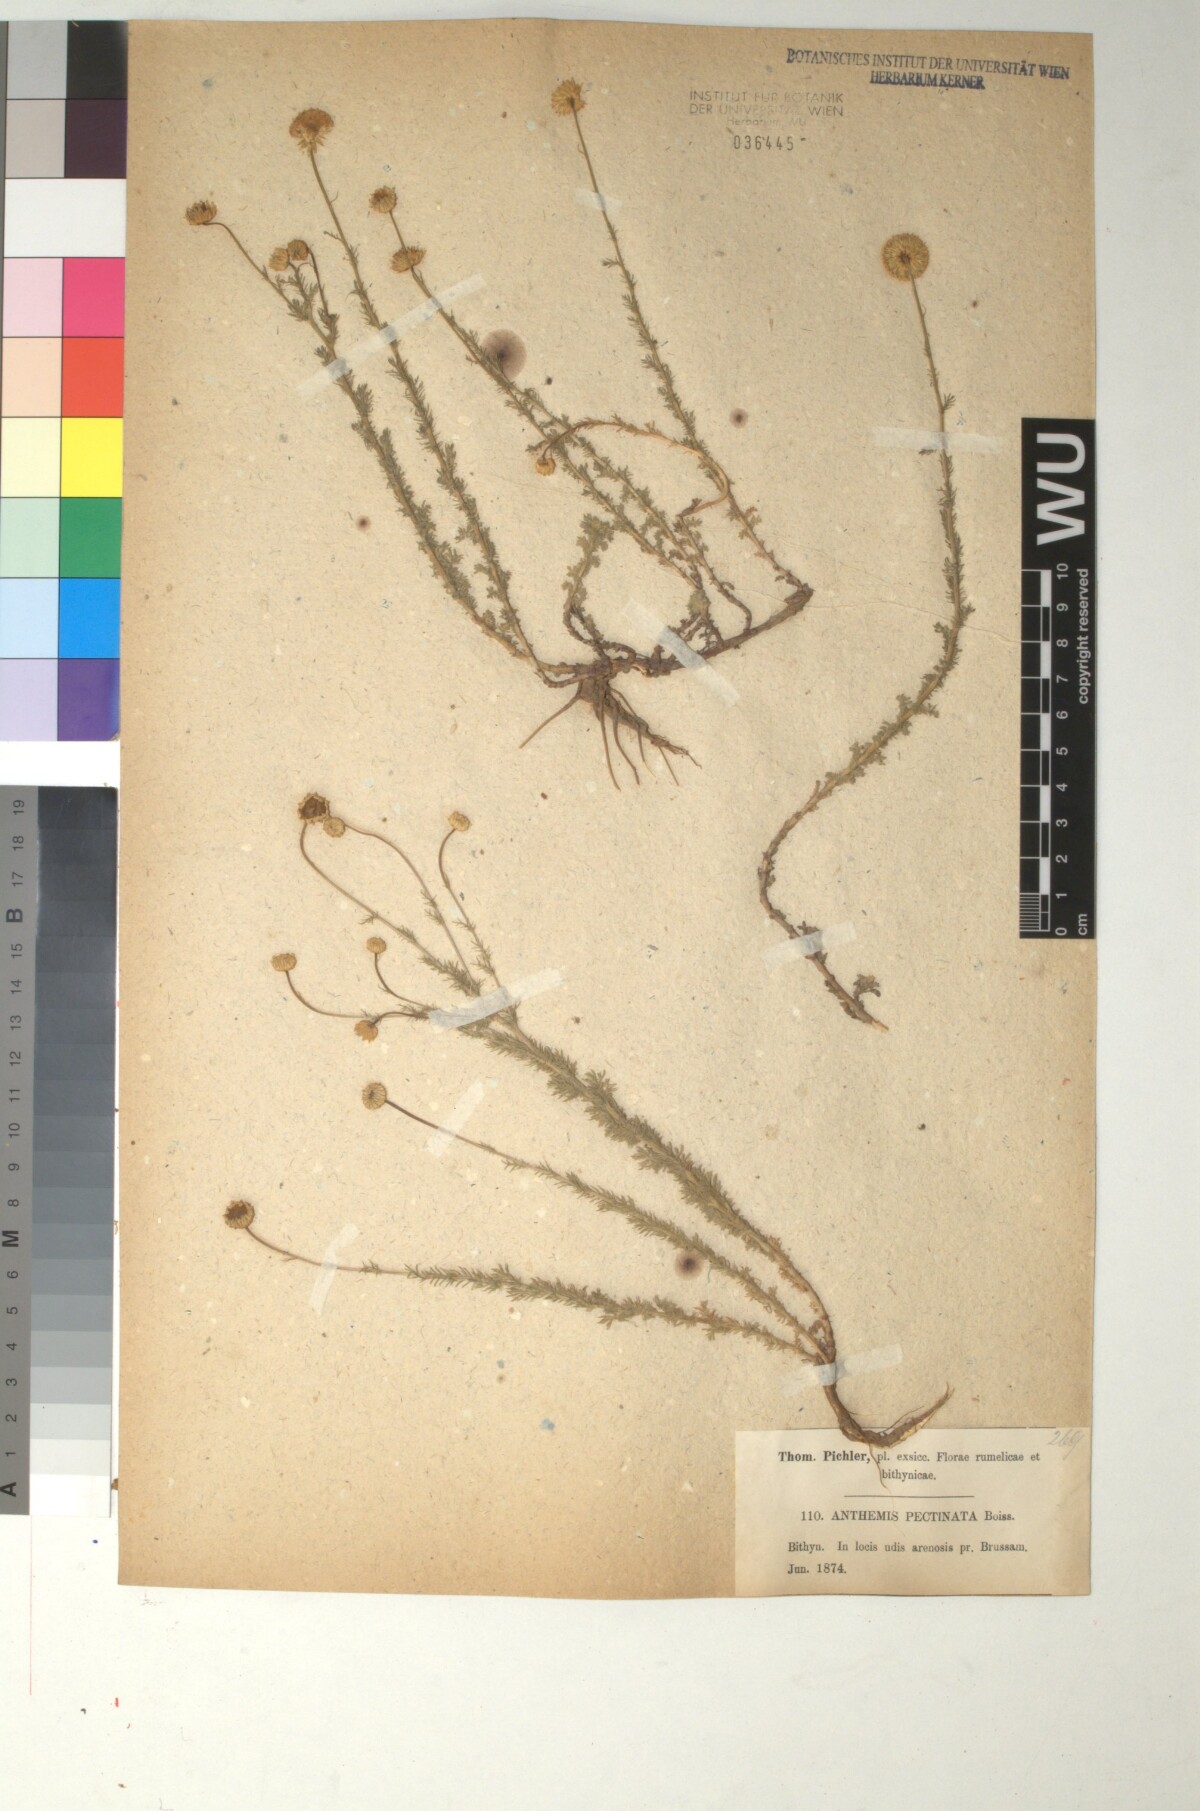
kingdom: Plantae
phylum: Tracheophyta
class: Magnoliopsida
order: Asterales
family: Asteraceae
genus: Anthemis
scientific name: Anthemis orientalis
